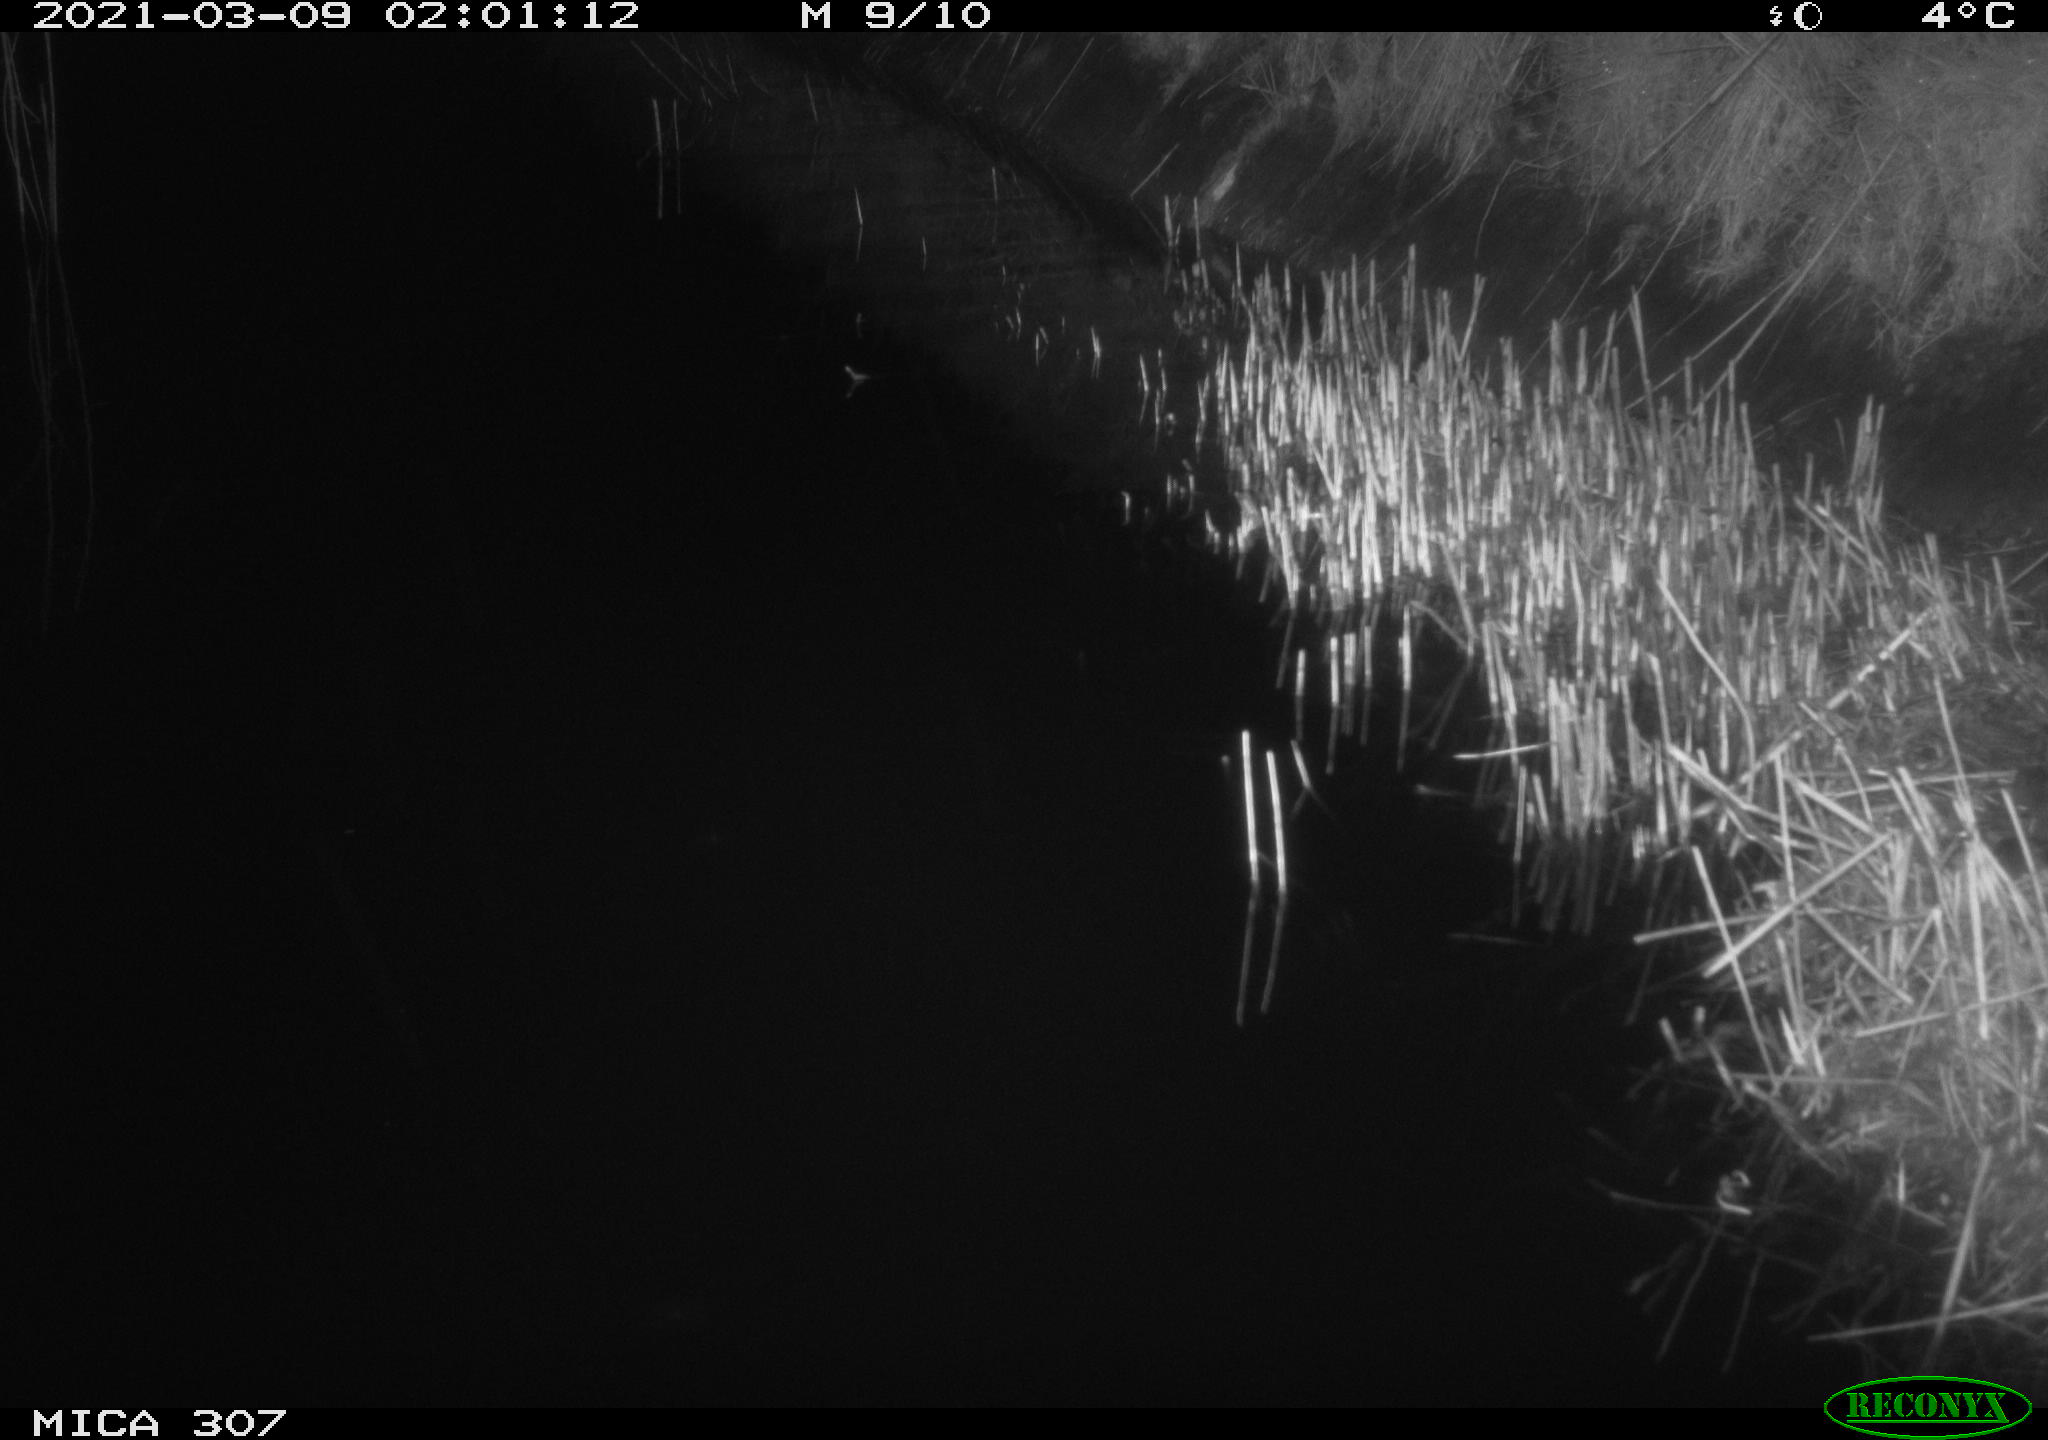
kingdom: Animalia
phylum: Chordata
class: Mammalia
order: Rodentia
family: Muridae
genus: Rattus
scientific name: Rattus norvegicus
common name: Brown rat
